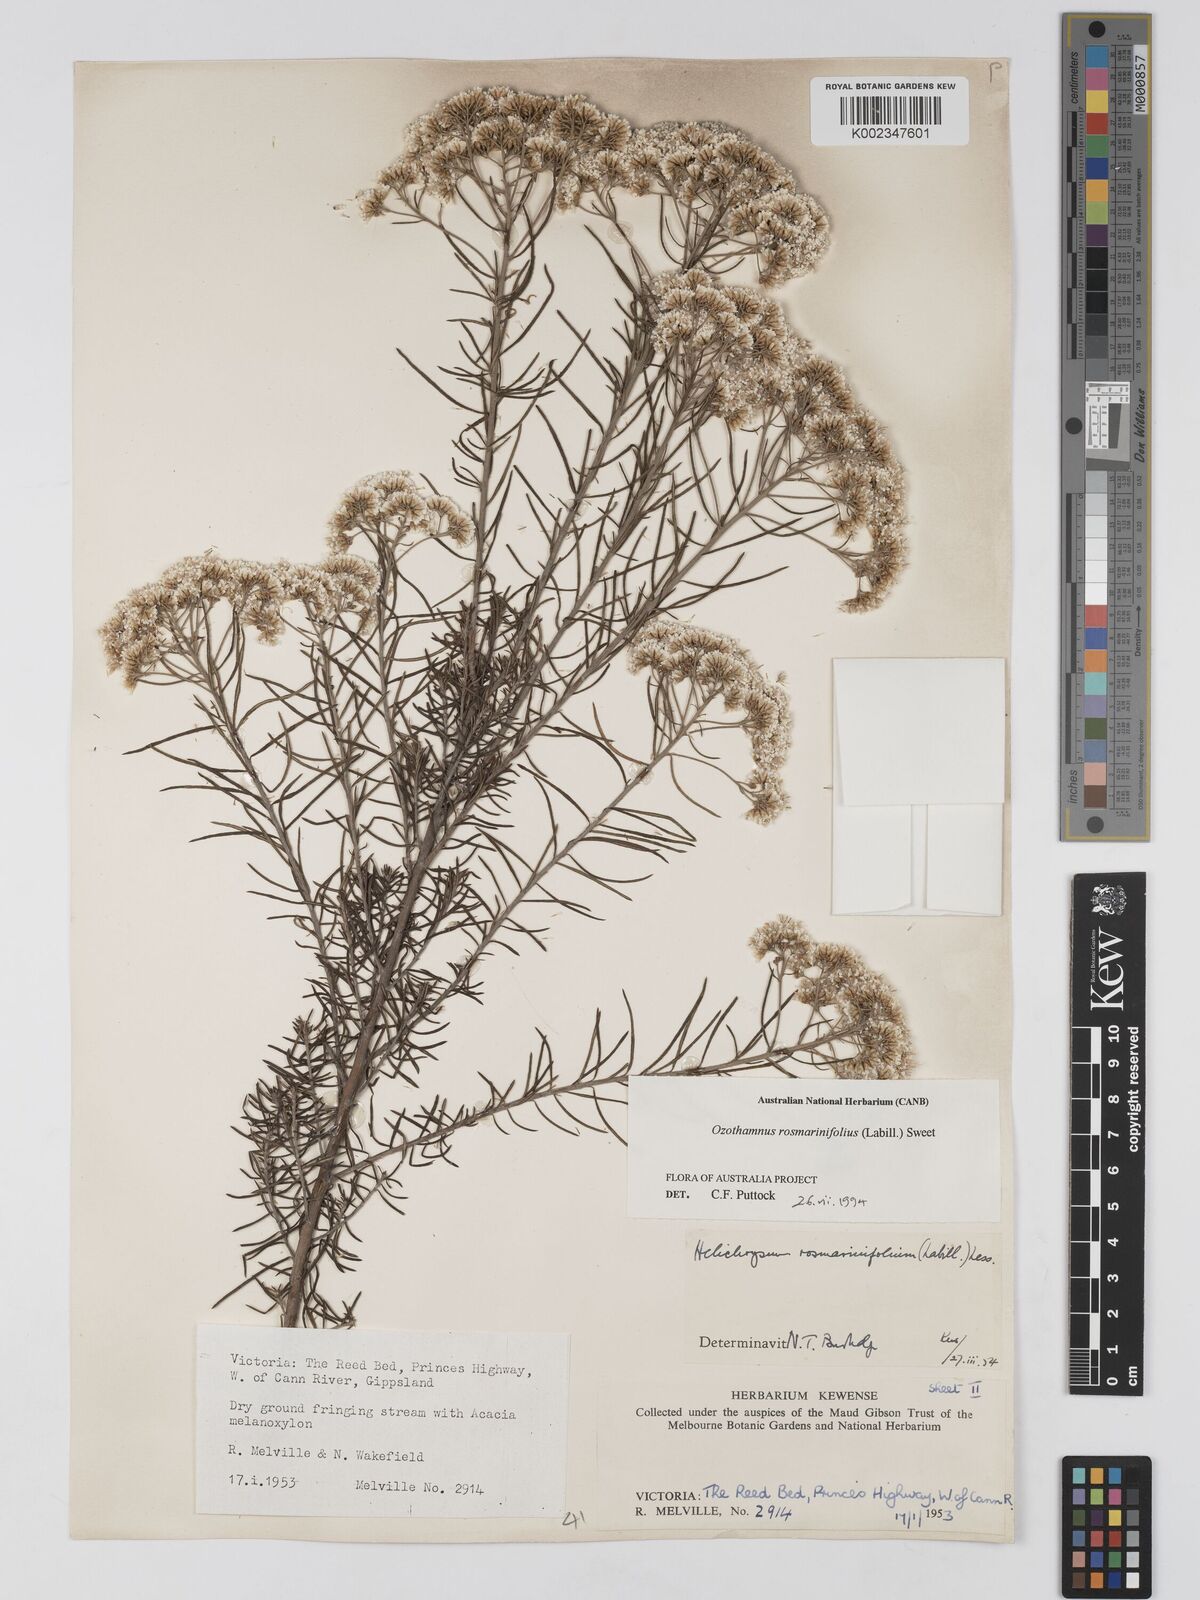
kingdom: Plantae
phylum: Tracheophyta
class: Magnoliopsida
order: Asterales
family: Asteraceae
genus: Ozothamnus
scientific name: Ozothamnus rosmarinifolius
